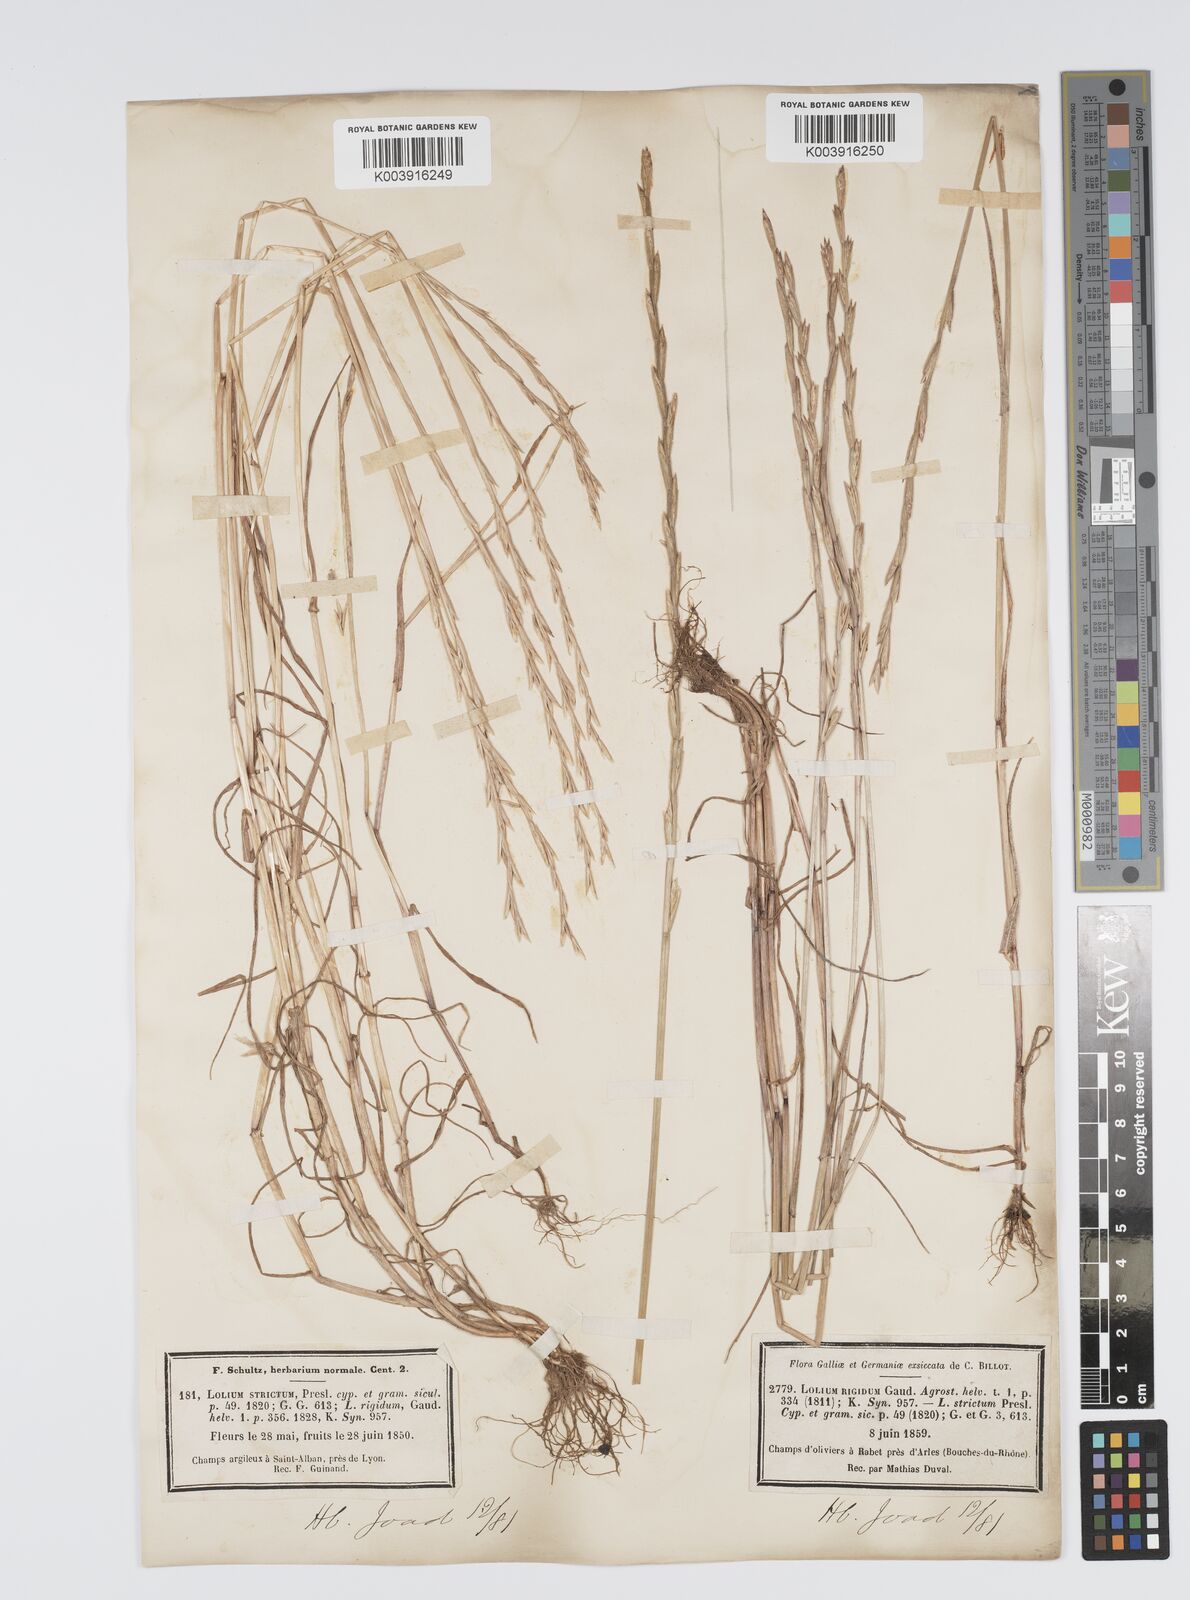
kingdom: Plantae
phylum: Tracheophyta
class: Liliopsida
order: Poales
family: Poaceae
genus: Lolium
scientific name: Lolium rigidum
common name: Wimmera ryegrass
